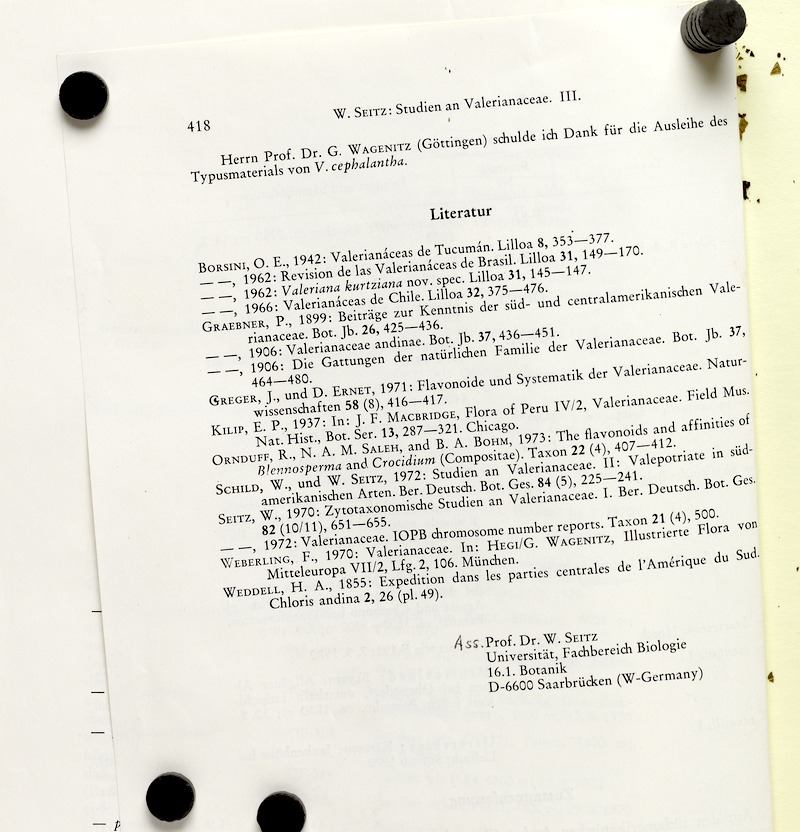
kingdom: Plantae
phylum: Tracheophyta
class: Magnoliopsida
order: Dipsacales
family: Caprifoliaceae
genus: Valeriana
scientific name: Valeriana merxmuelleri
